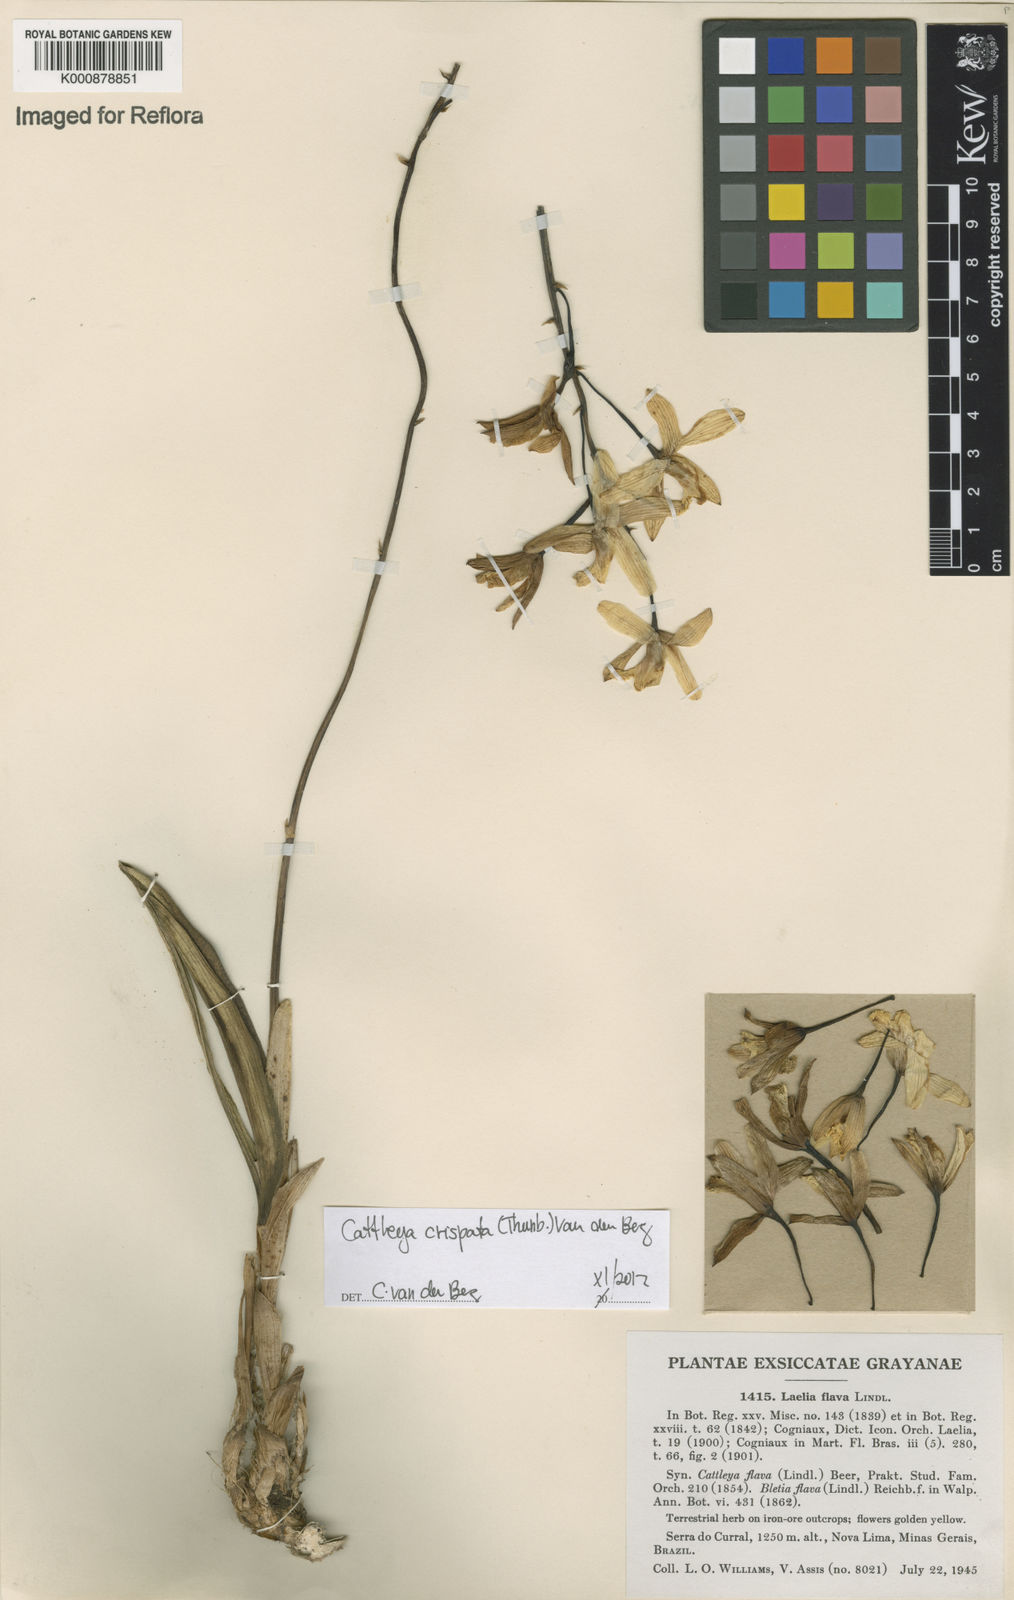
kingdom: Plantae
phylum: Tracheophyta
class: Liliopsida
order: Asparagales
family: Orchidaceae
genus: Cattleya
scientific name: Cattleya crispata
